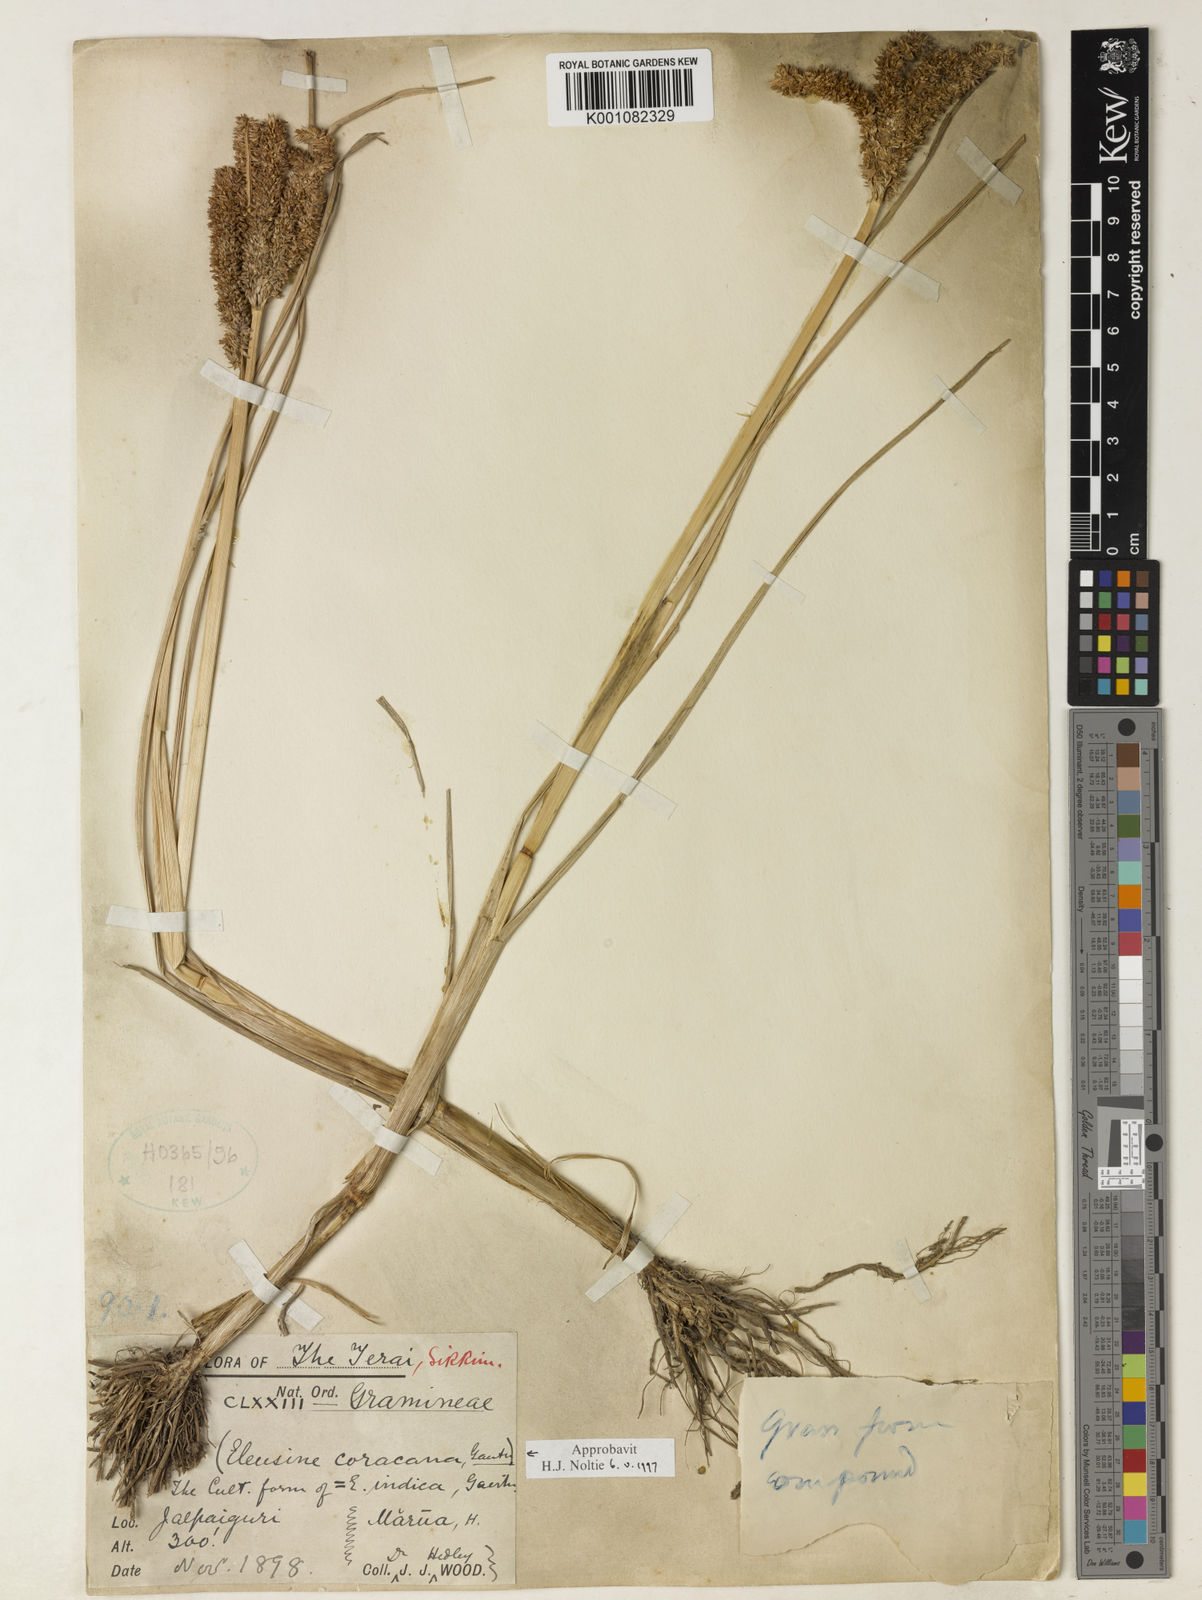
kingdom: Plantae
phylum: Tracheophyta
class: Liliopsida
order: Poales
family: Poaceae
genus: Eleusine
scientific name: Eleusine coracana
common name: Finger millet
